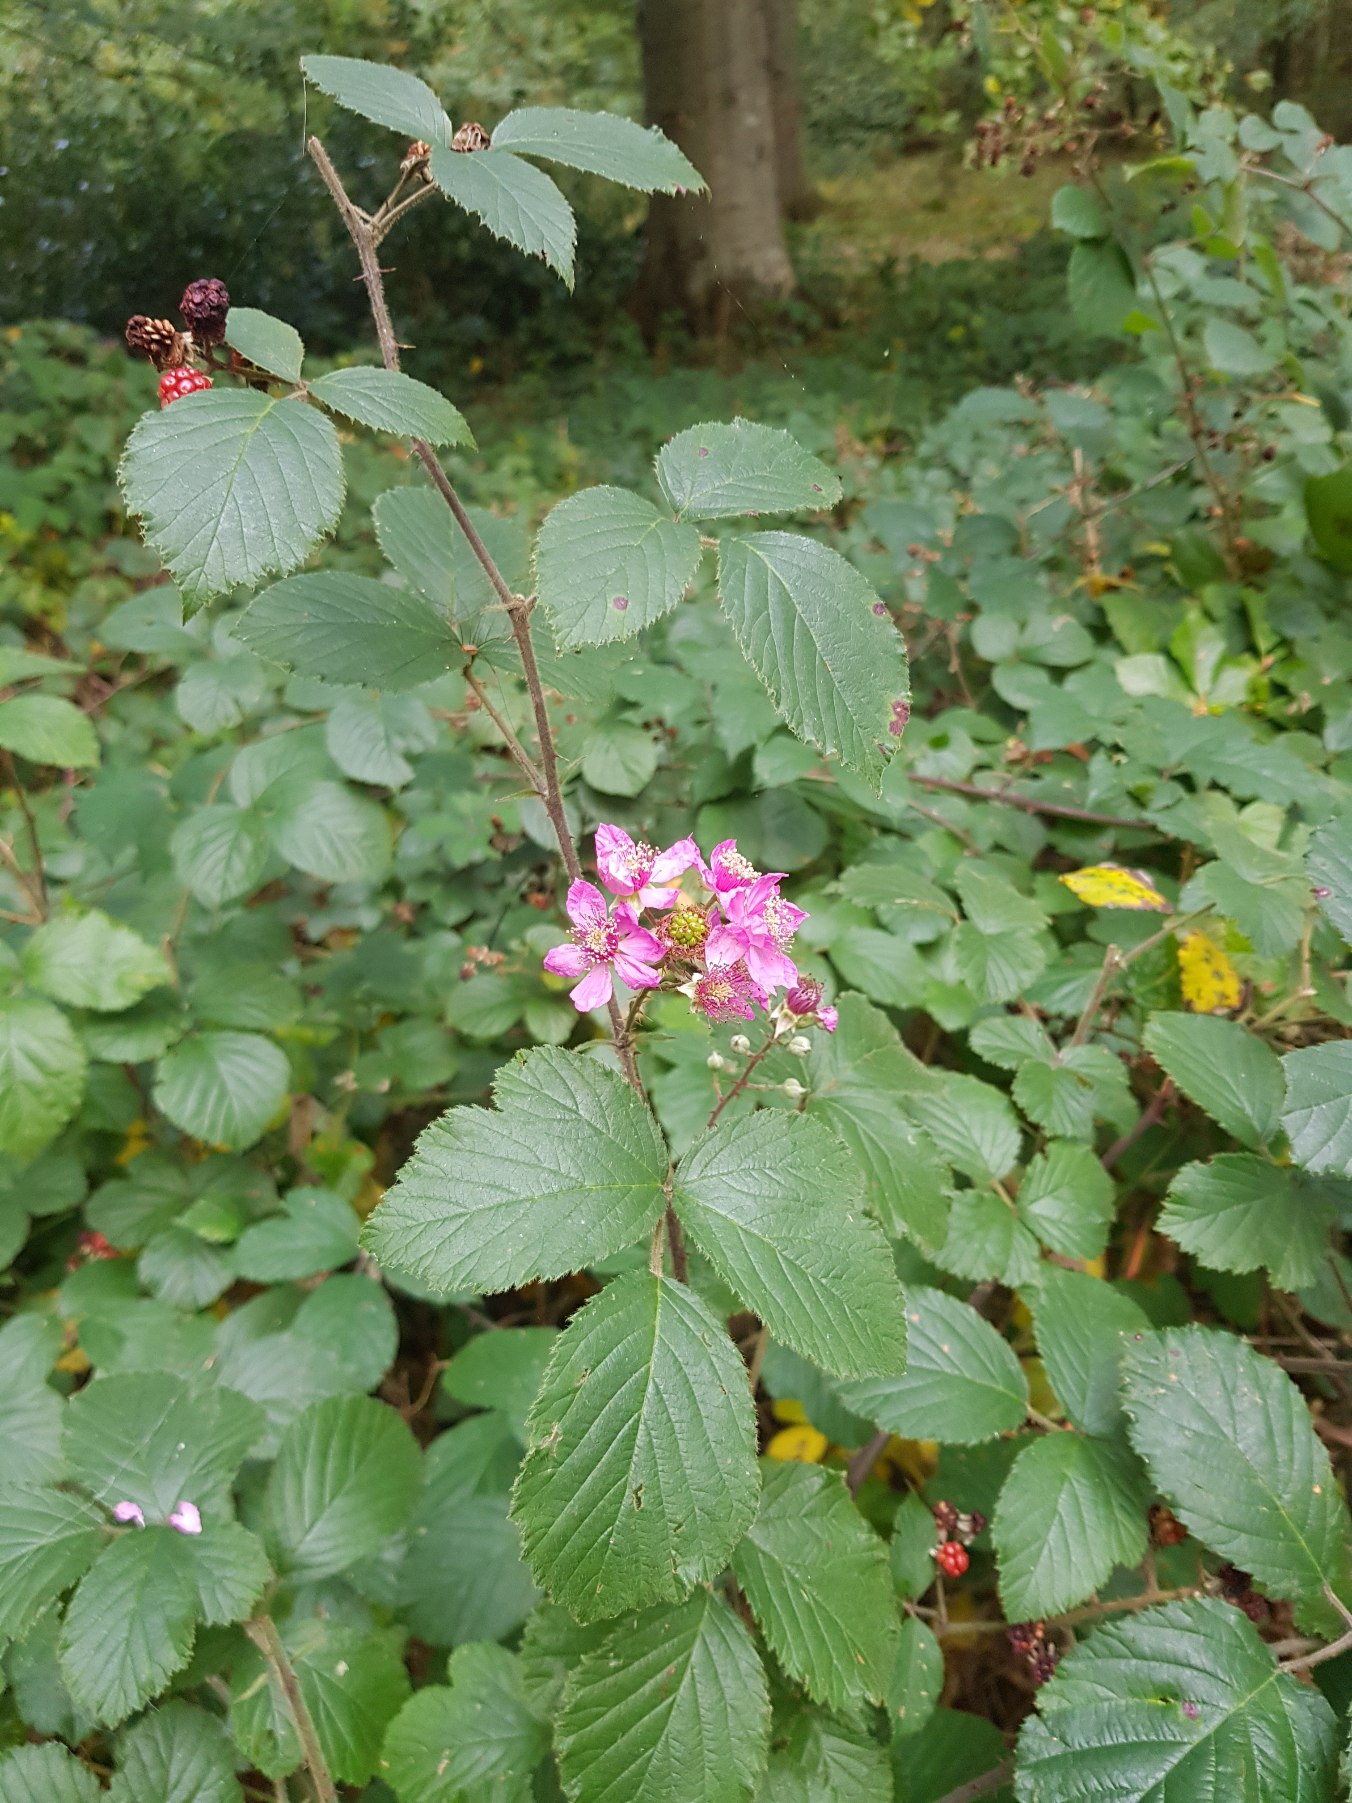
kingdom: Plantae
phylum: Tracheophyta
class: Magnoliopsida
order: Rosales
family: Rosaceae
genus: Rubus
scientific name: Rubus vestitus
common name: Rundbladet brombær
